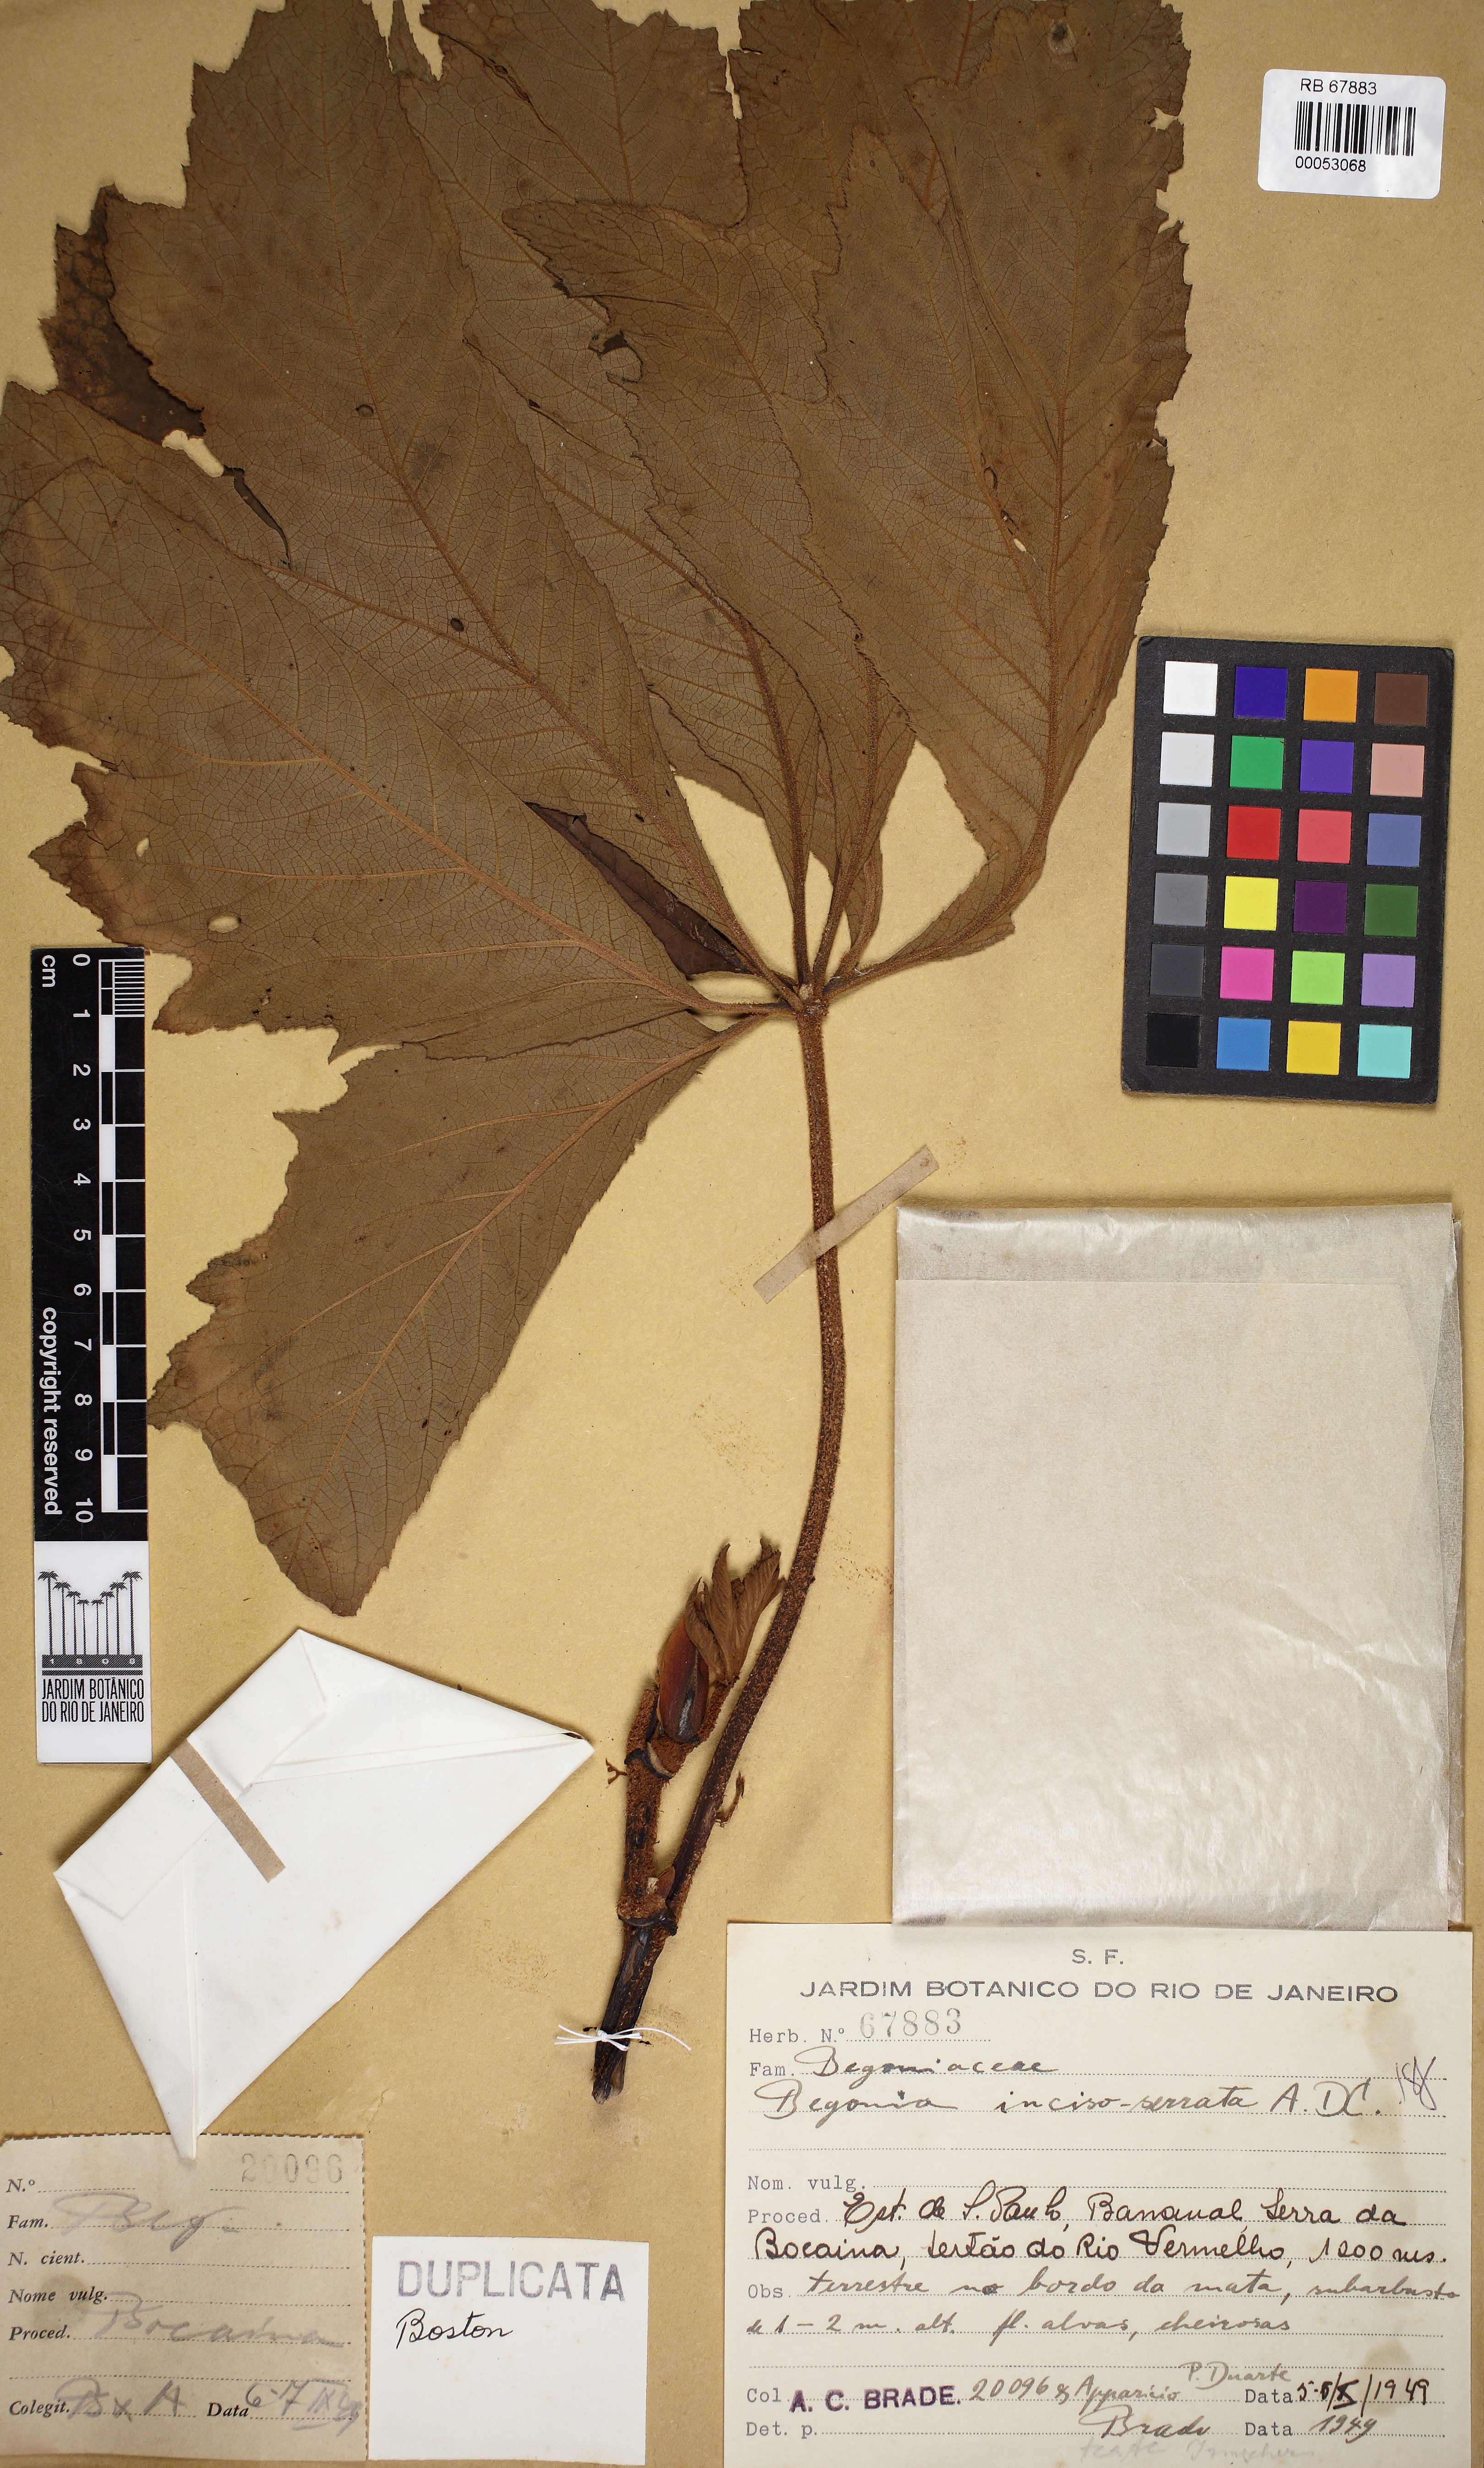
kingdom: Plantae
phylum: Tracheophyta
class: Magnoliopsida
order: Cucurbitales
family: Begoniaceae
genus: Begonia
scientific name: Begonia incisoserrata
